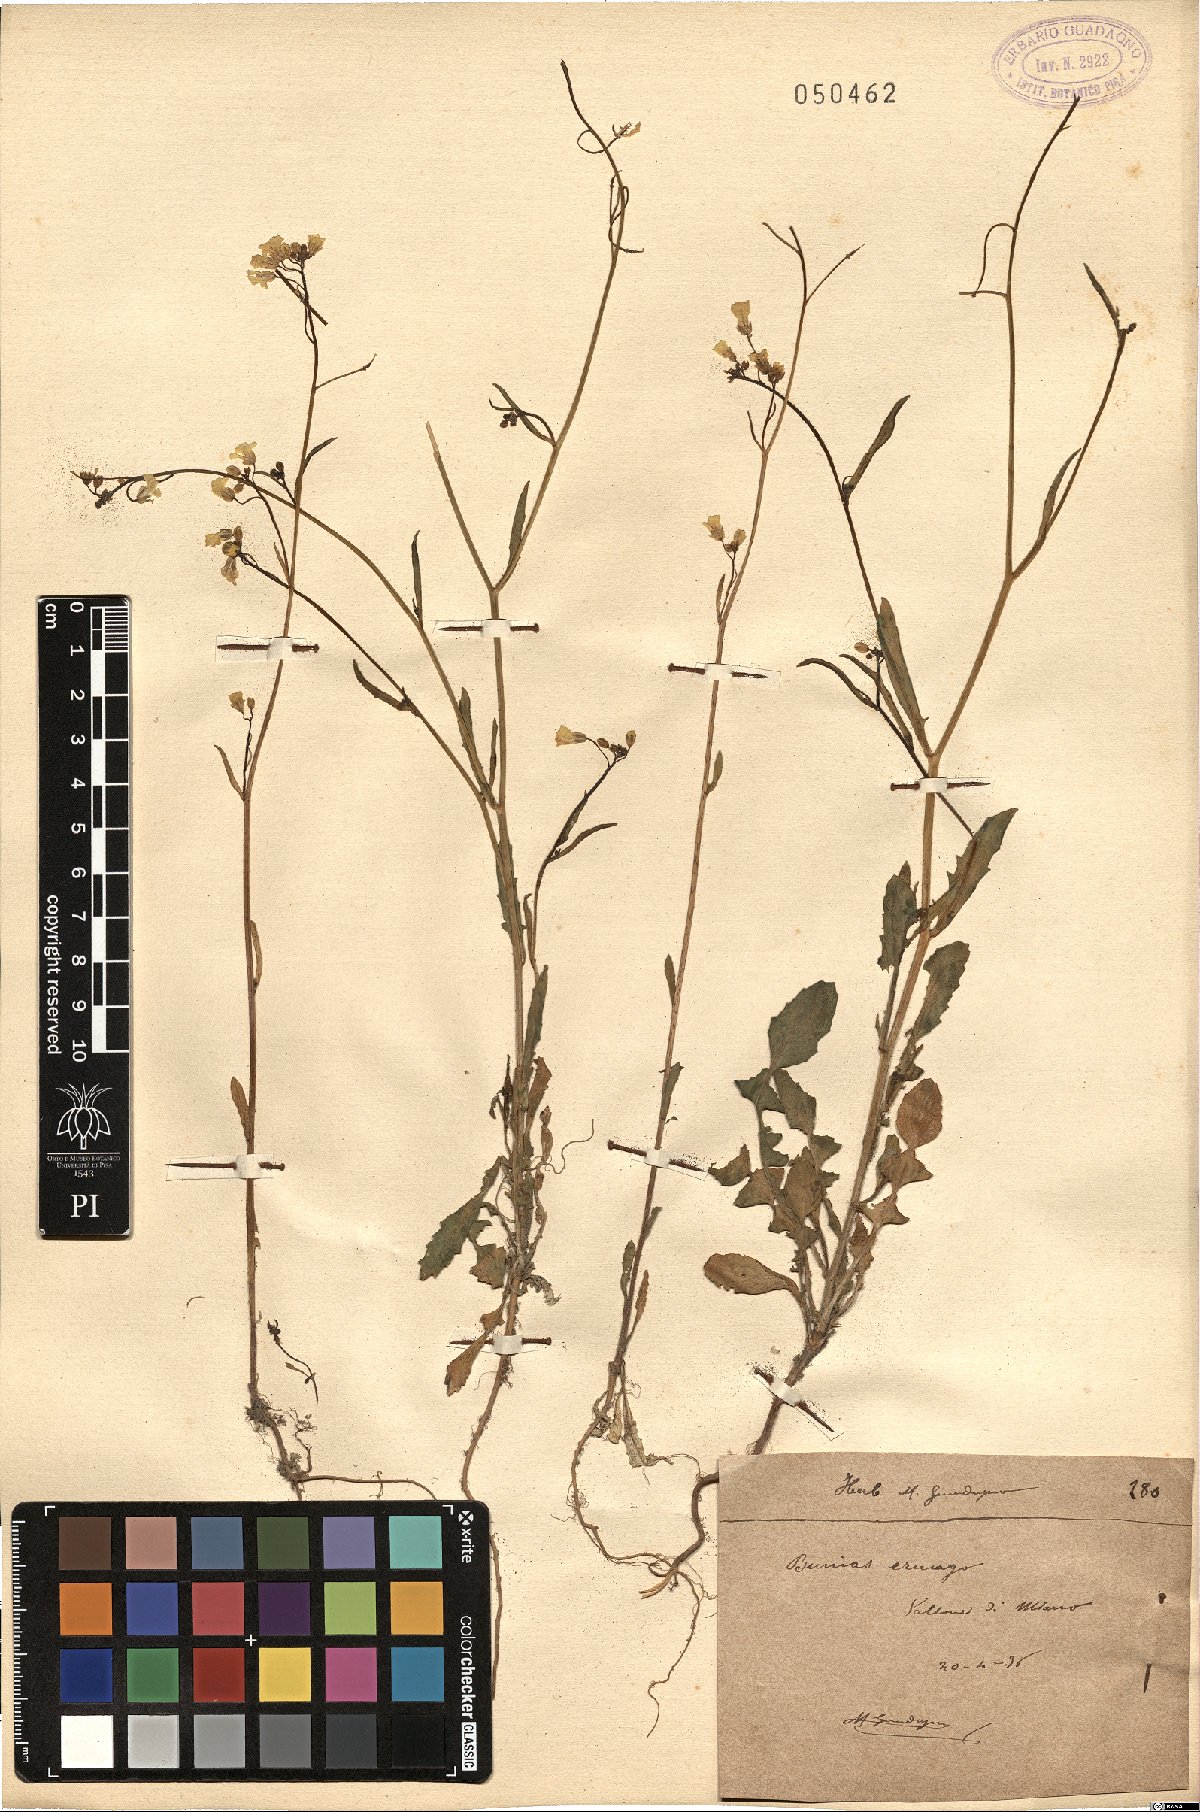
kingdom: Plantae
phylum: Tracheophyta
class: Magnoliopsida
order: Brassicales
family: Brassicaceae
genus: Bunias
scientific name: Bunias erucago
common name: Southern warty-cabbage
